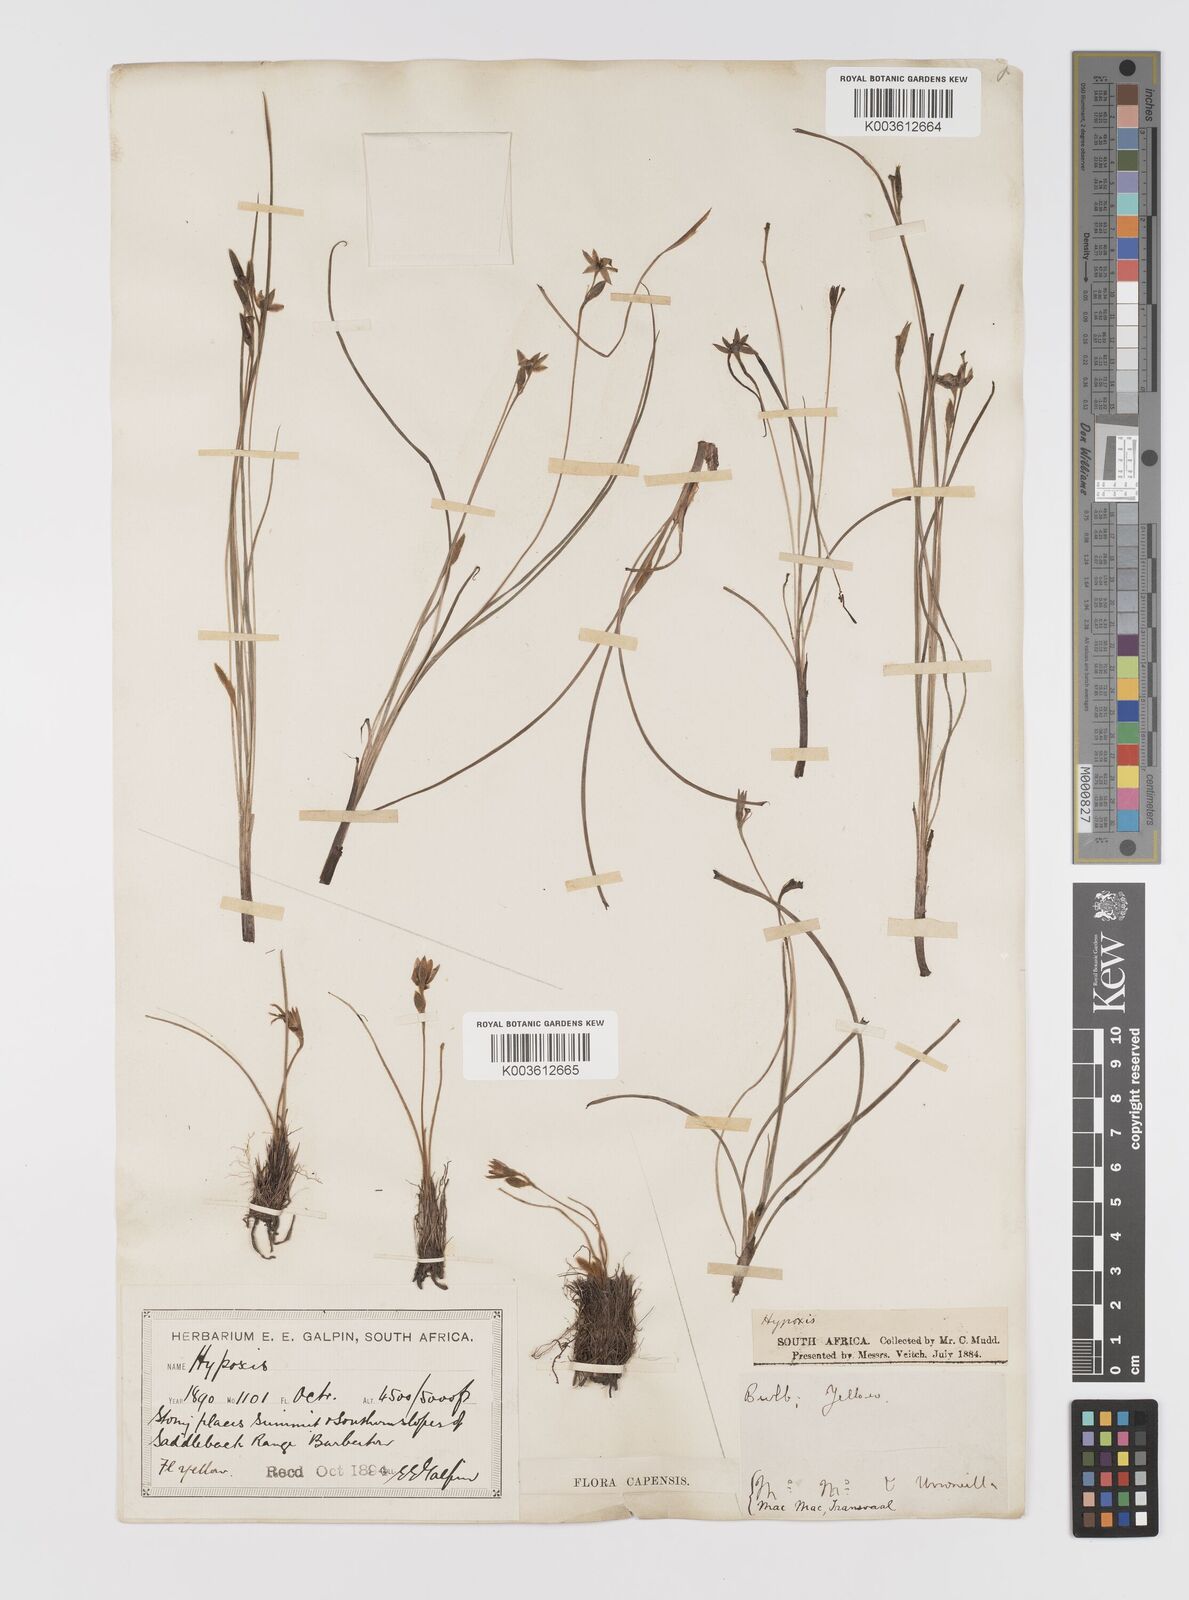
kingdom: Plantae
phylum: Tracheophyta
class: Liliopsida
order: Asparagales
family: Hypoxidaceae
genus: Hypoxis
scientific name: Hypoxis filiformis
